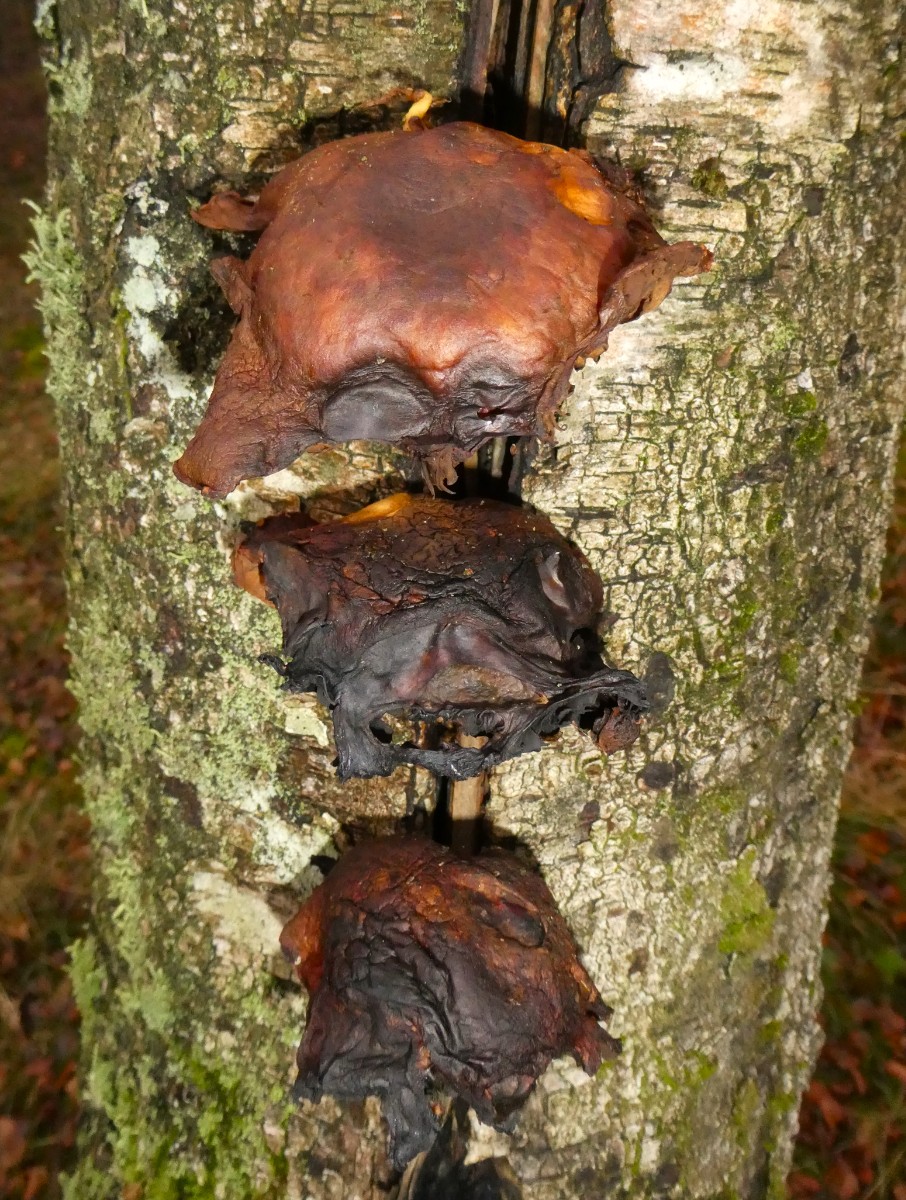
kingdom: Fungi
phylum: Basidiomycota
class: Agaricomycetes
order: Agaricales
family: Strophariaceae
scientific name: Strophariaceae
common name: bredbladfamilien
